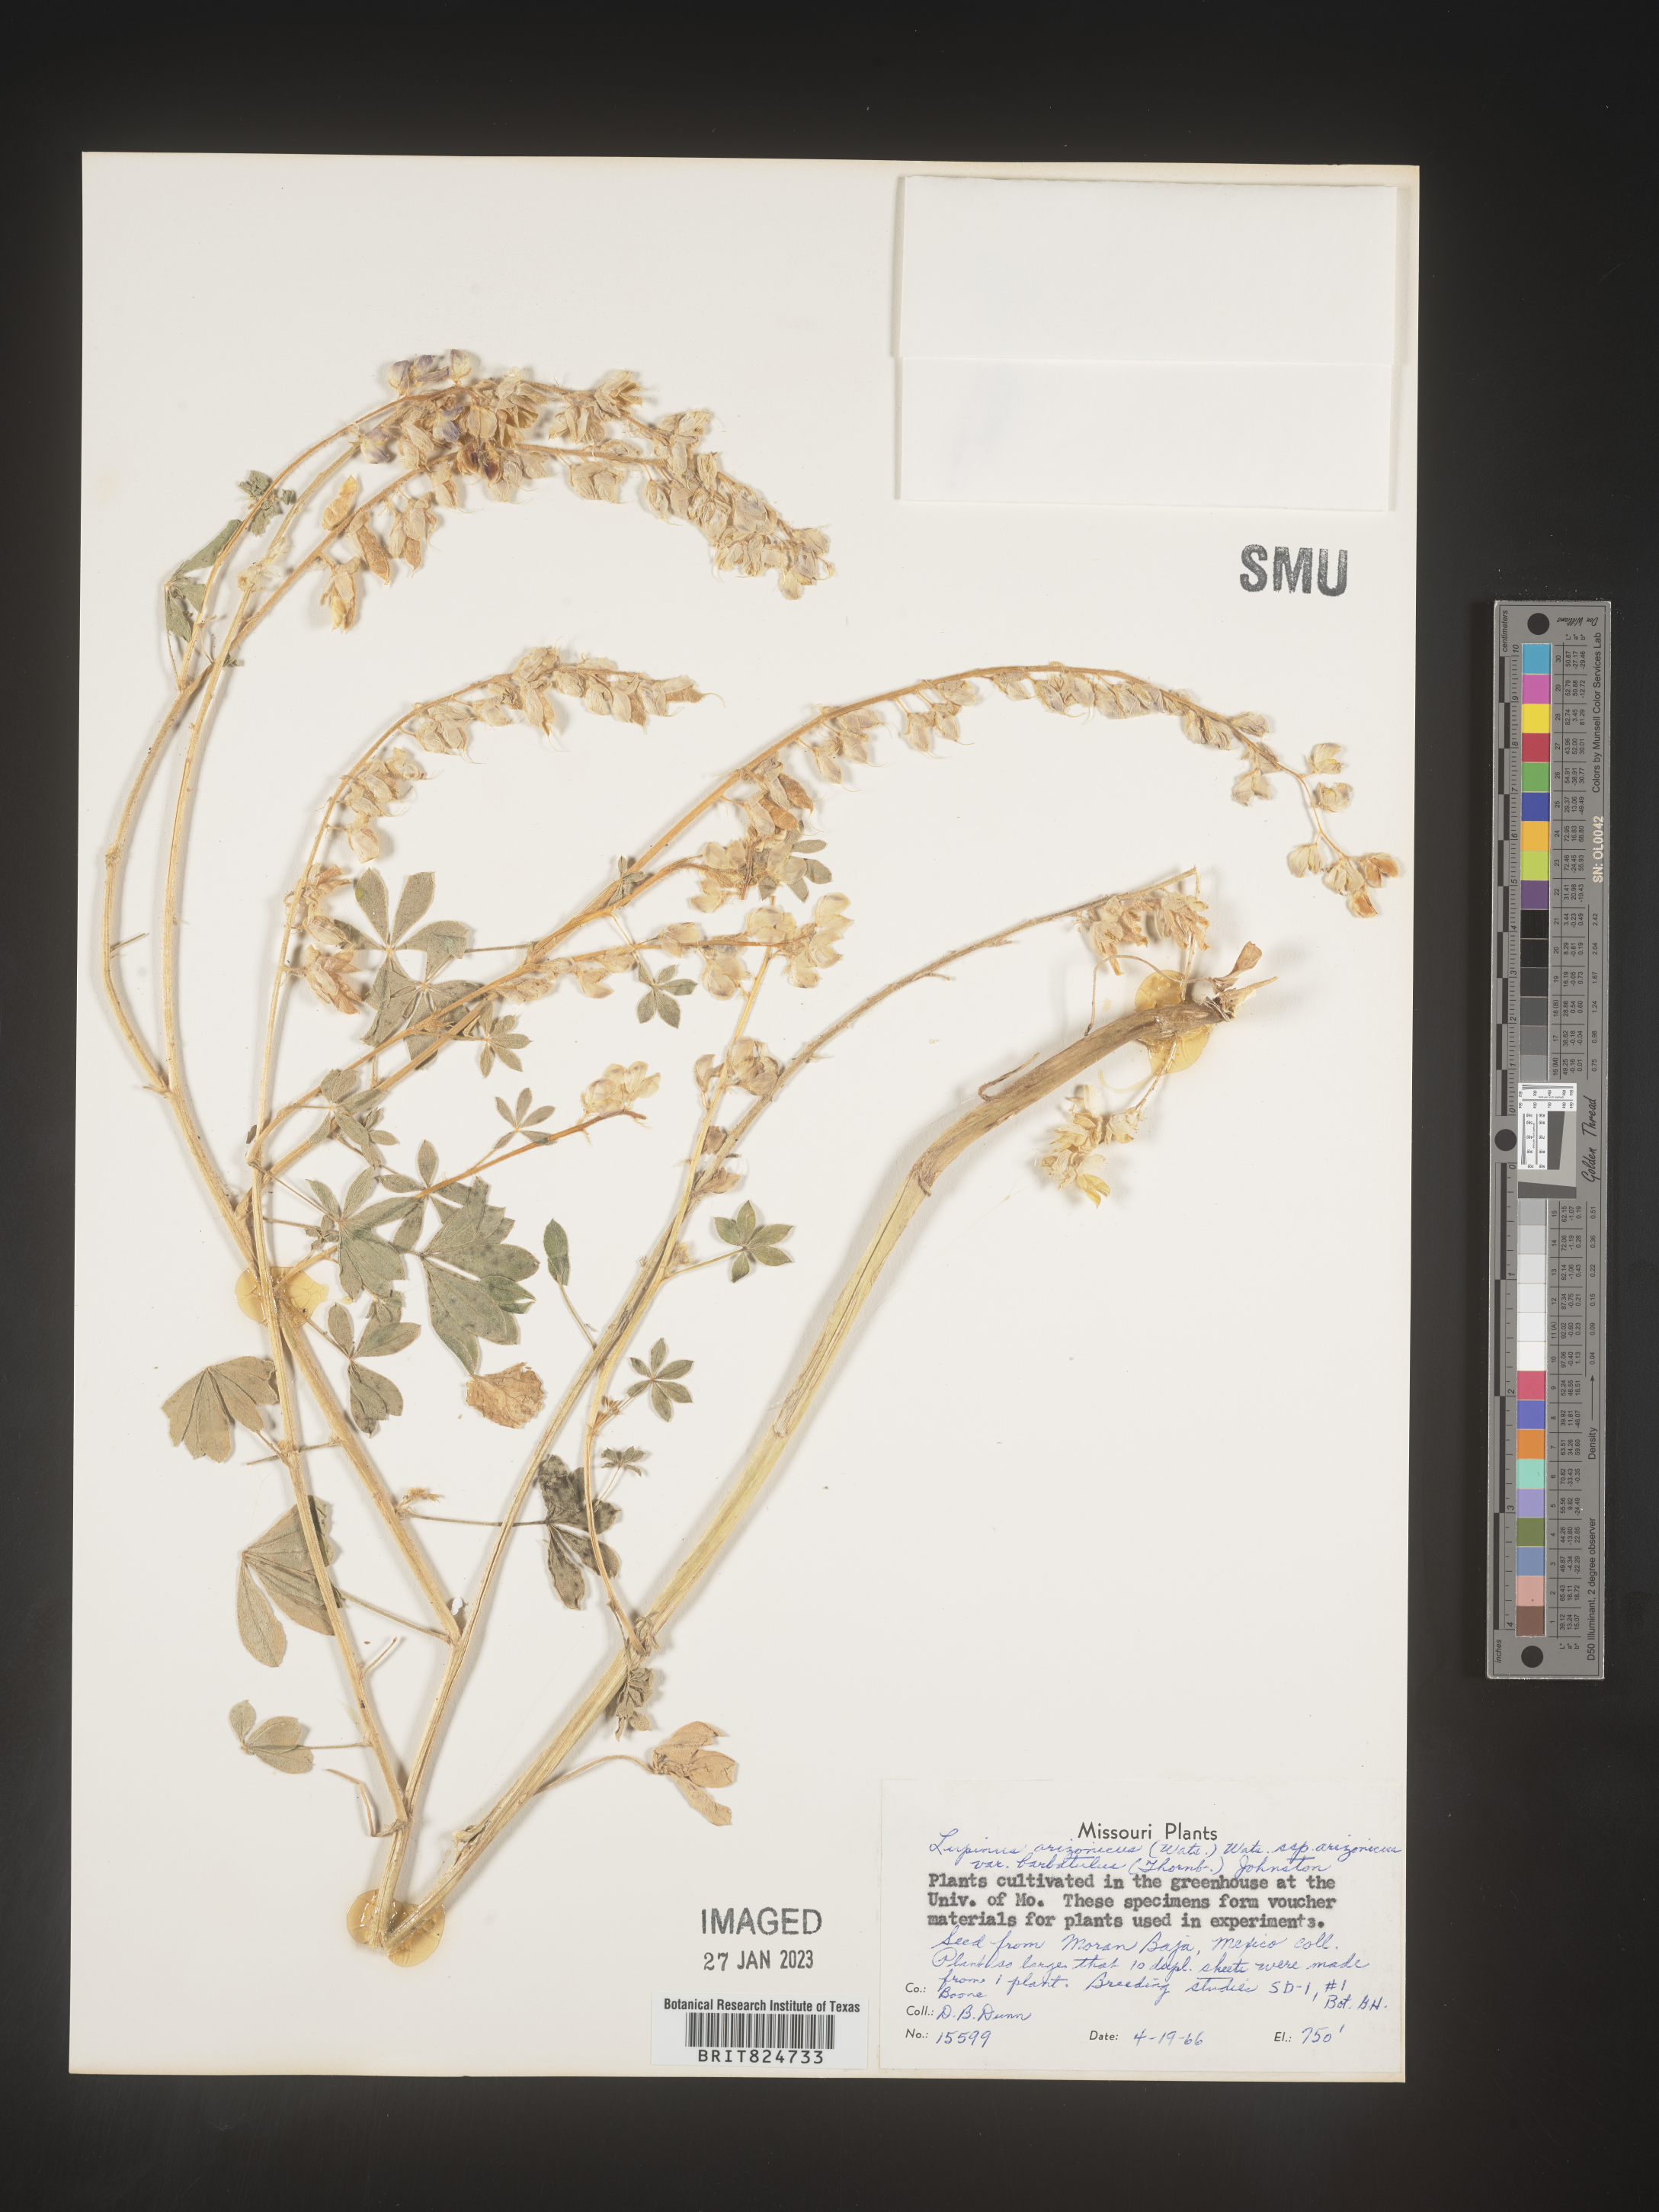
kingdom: Plantae
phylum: Tracheophyta
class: Magnoliopsida
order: Fabales
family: Fabaceae
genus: Lupinus
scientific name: Lupinus arizonicus
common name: Arizona lupine
